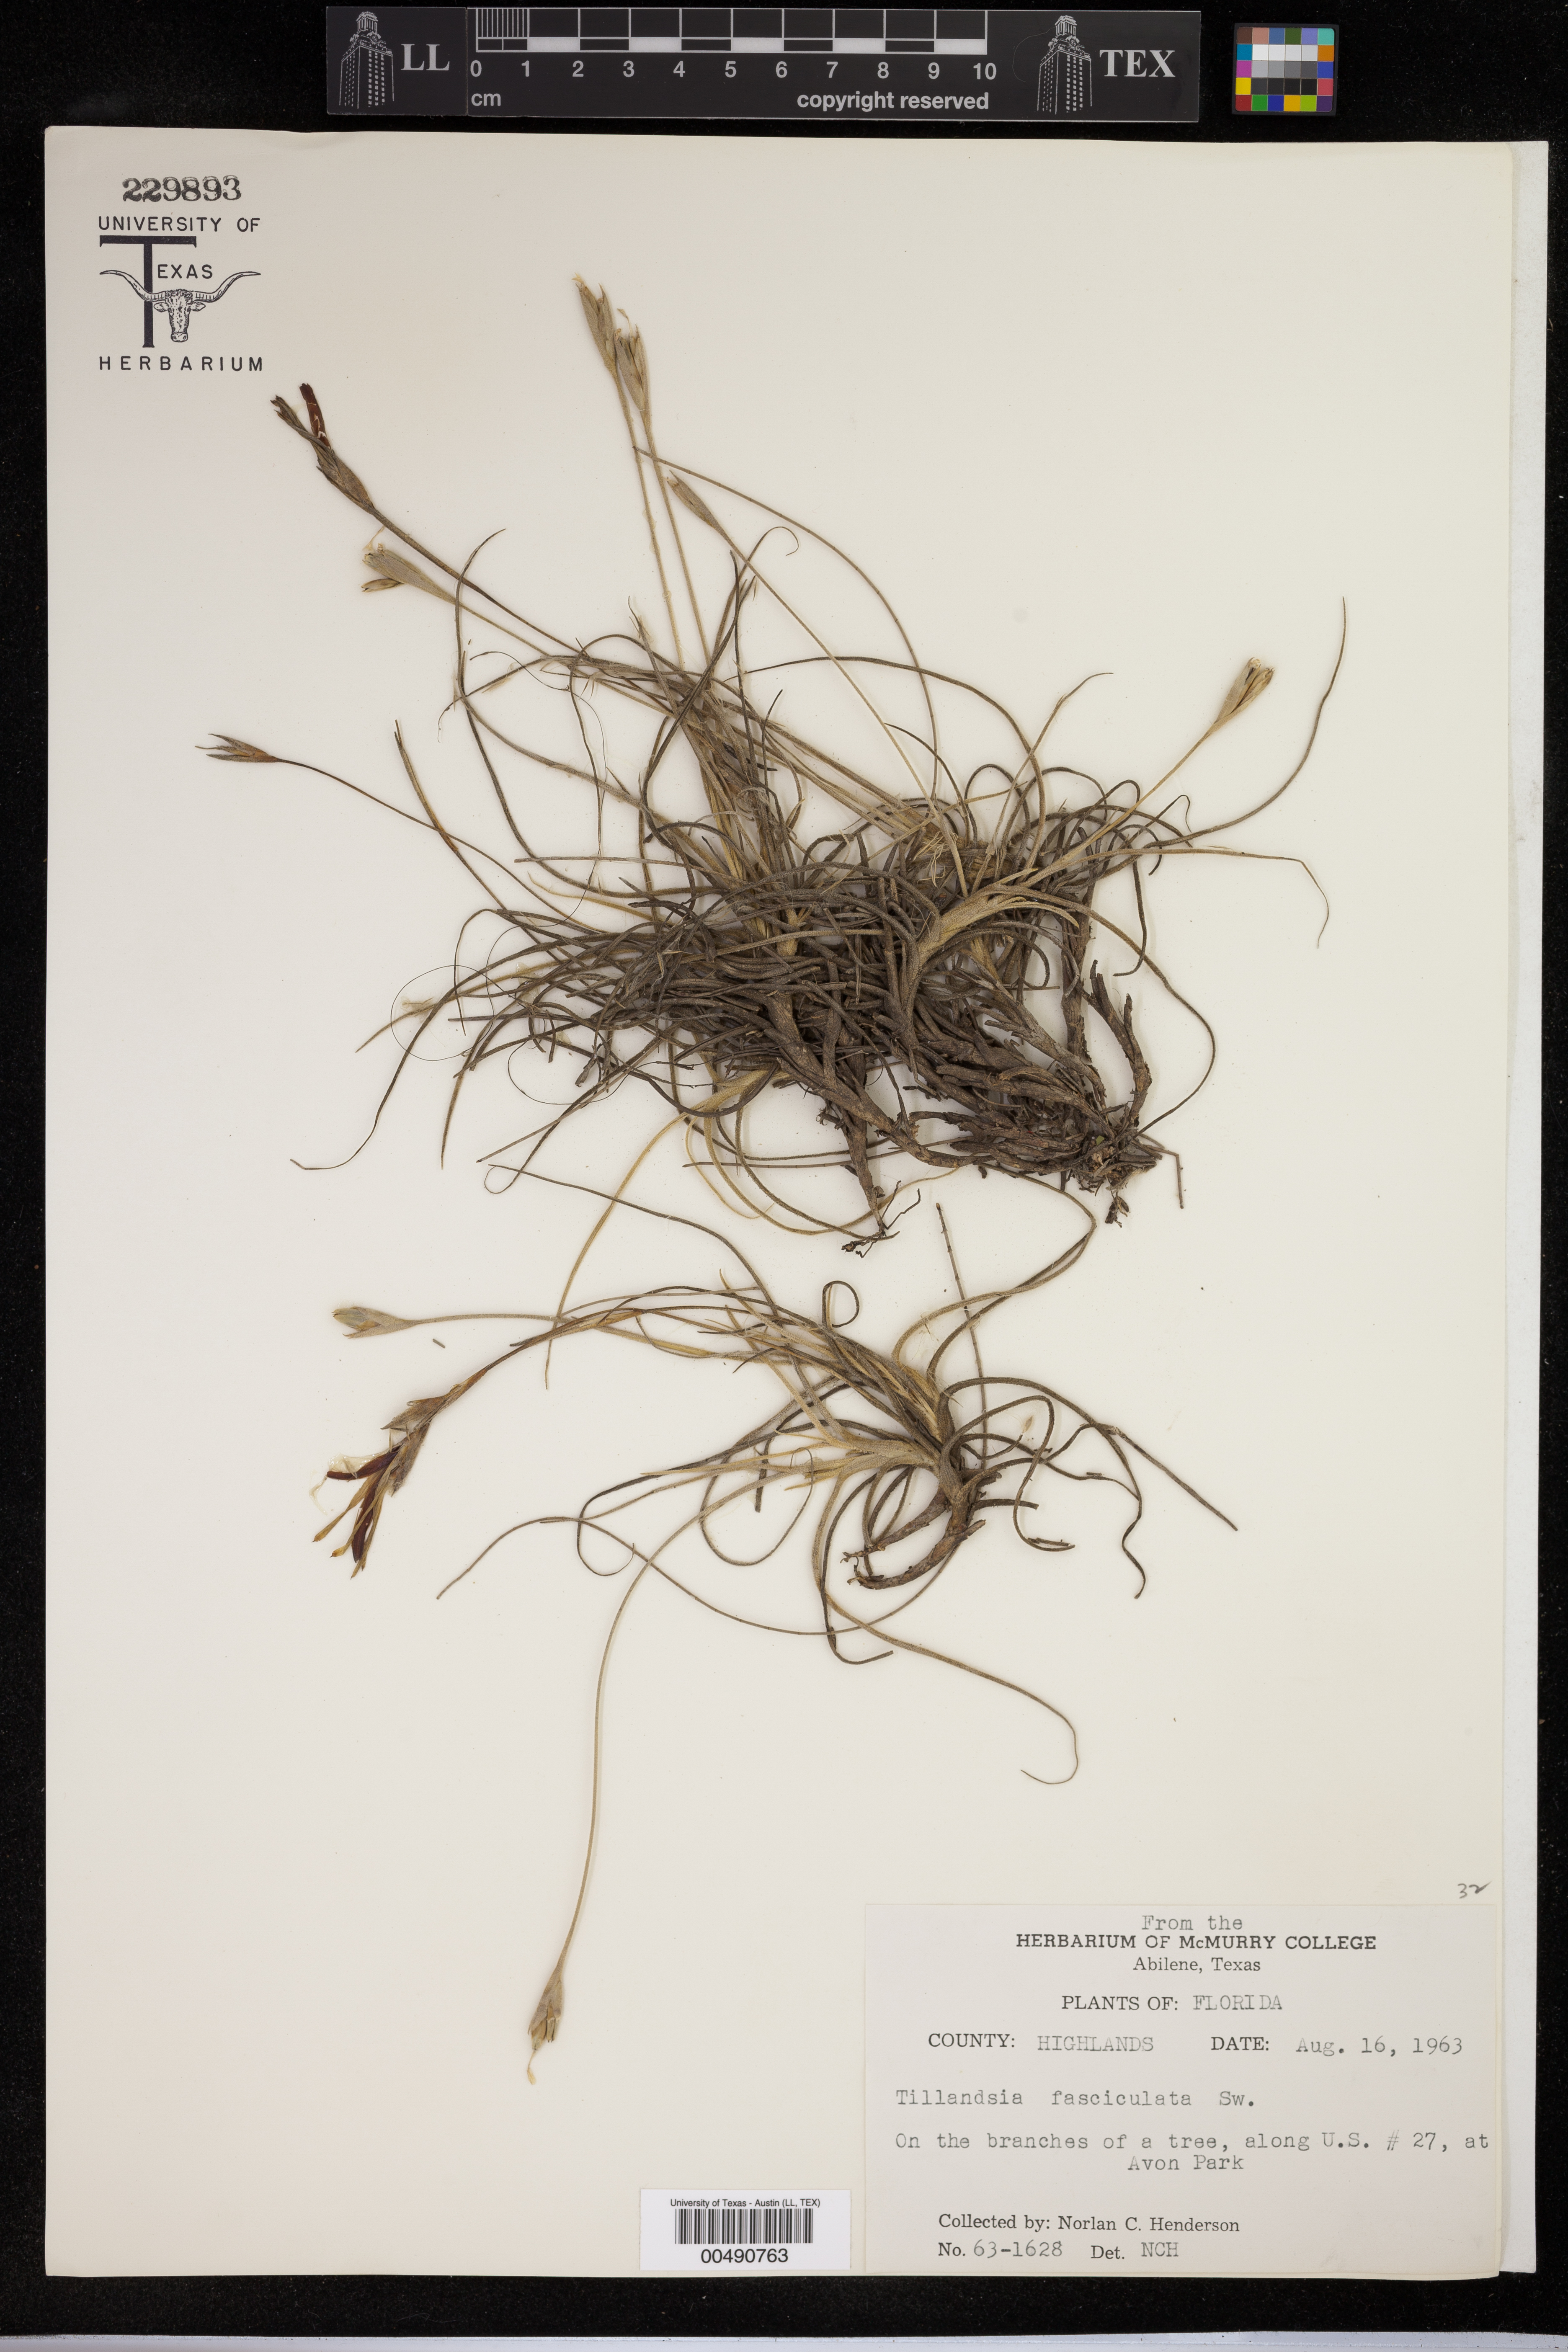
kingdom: Plantae
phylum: Tracheophyta
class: Liliopsida
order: Poales
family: Bromeliaceae
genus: Tillandsia
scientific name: Tillandsia fasciculata
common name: Giant airplant
